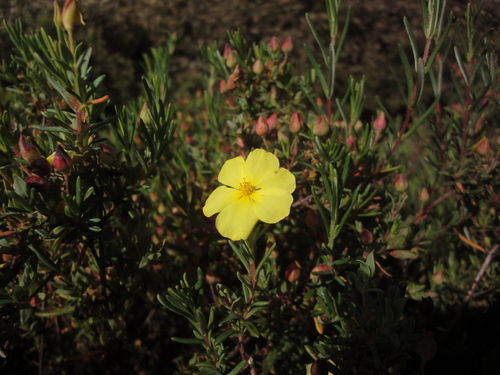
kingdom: Plantae
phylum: Tracheophyta
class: Magnoliopsida
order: Malvales
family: Cistaceae
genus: Halimium
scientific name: Halimium calycinum
